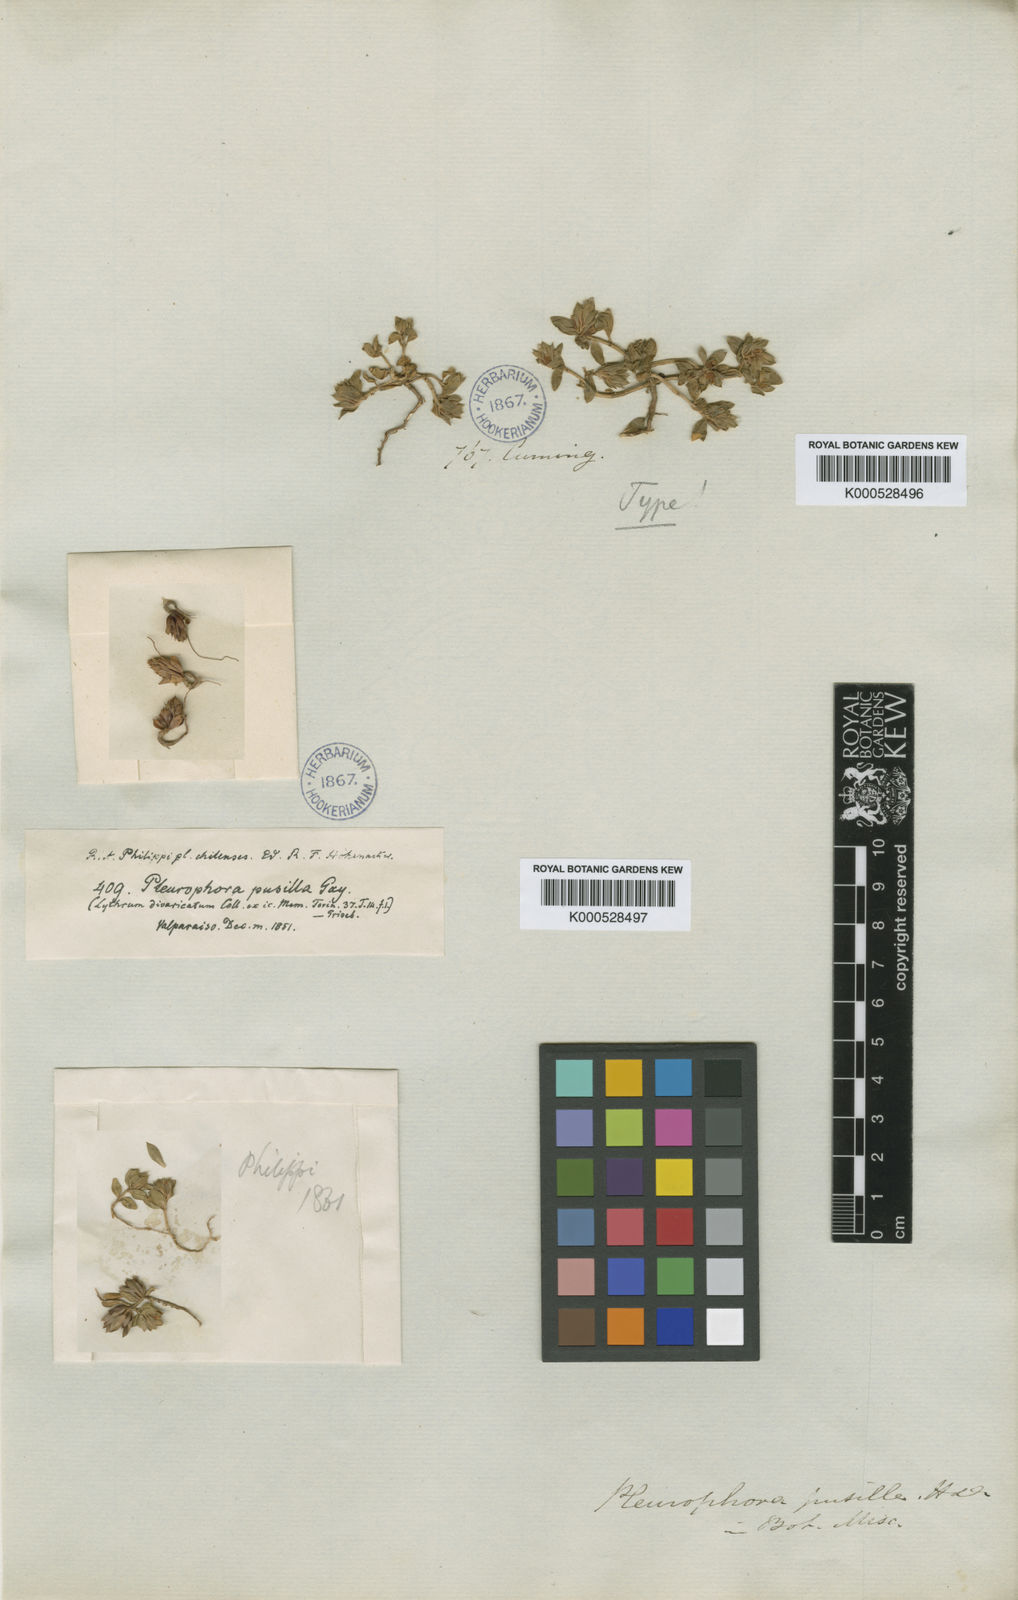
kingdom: Plantae
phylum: Tracheophyta
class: Magnoliopsida
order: Myrtales
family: Lythraceae
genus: Pleurophora
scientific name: Pleurophora pusilla
